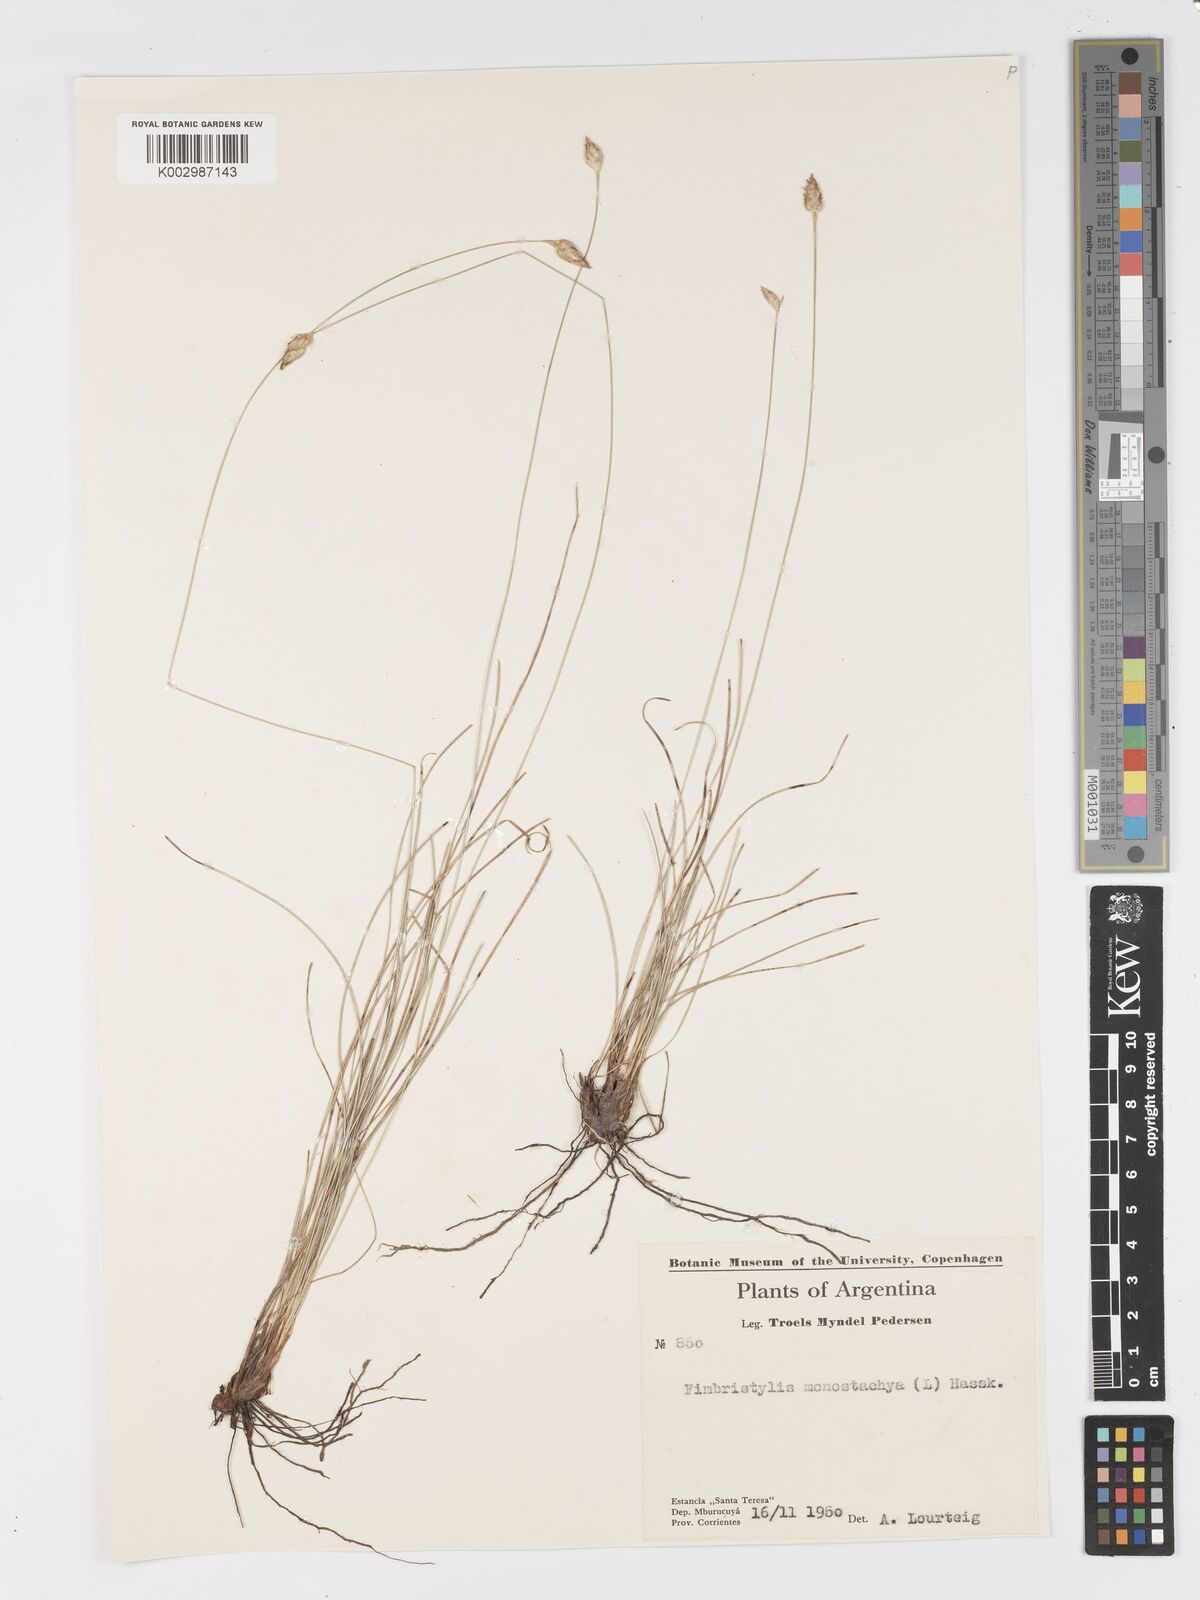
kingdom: Plantae
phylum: Tracheophyta
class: Liliopsida
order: Poales
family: Cyperaceae
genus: Abildgaardia
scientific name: Abildgaardia ovata
